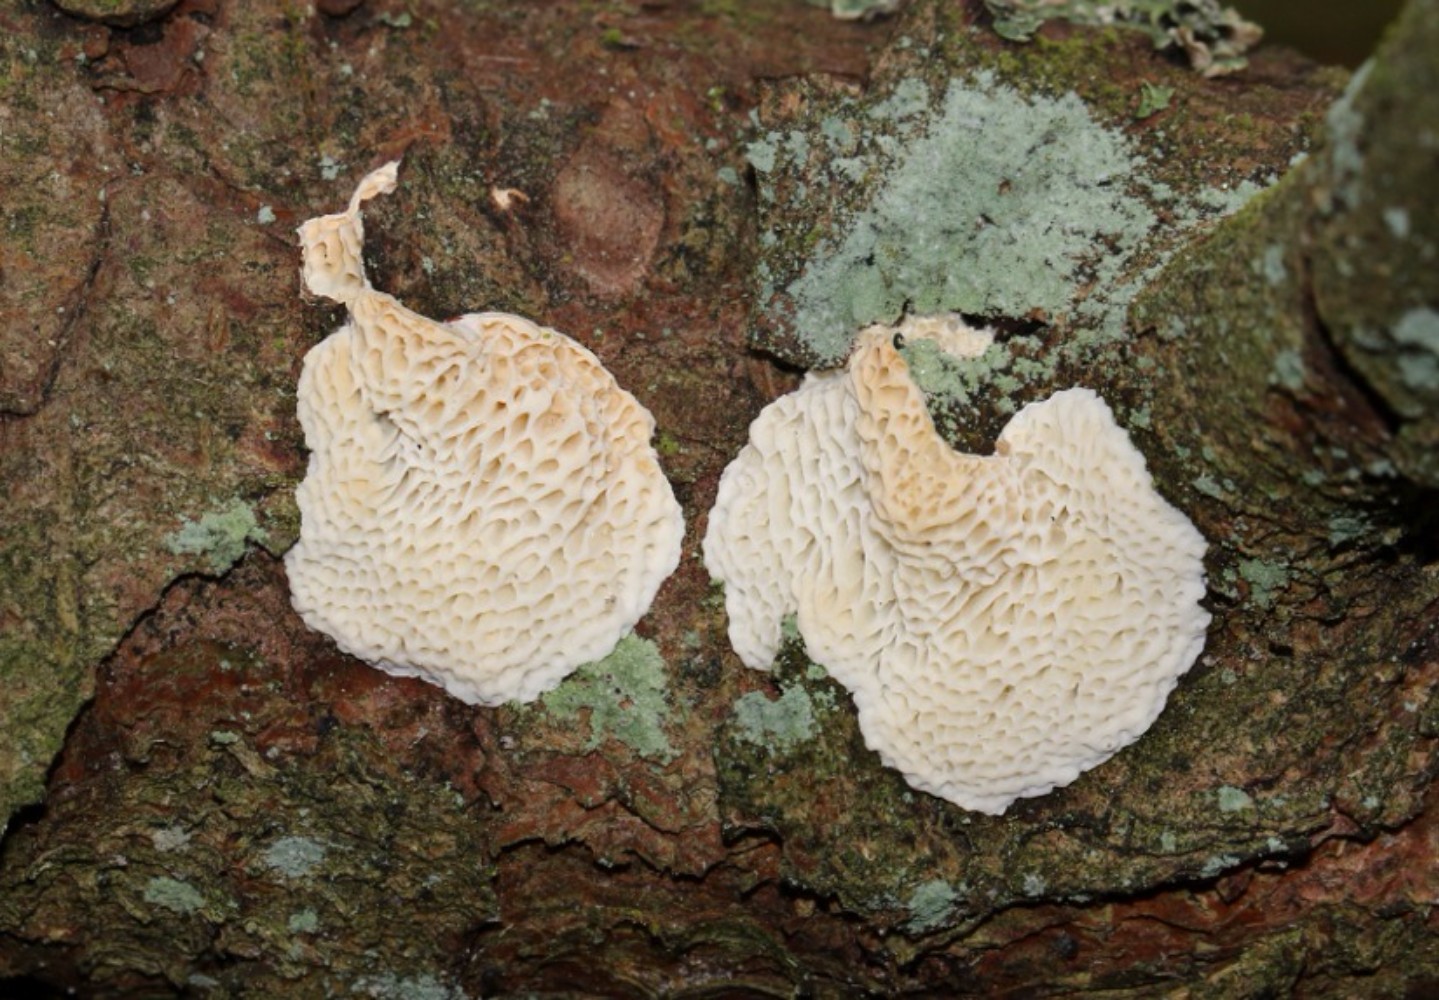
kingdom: Fungi
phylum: Basidiomycota
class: Agaricomycetes
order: Polyporales
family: Fomitopsidaceae
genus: Fomitopsis
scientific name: Fomitopsis
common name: fyrre-skiveporesvamp
